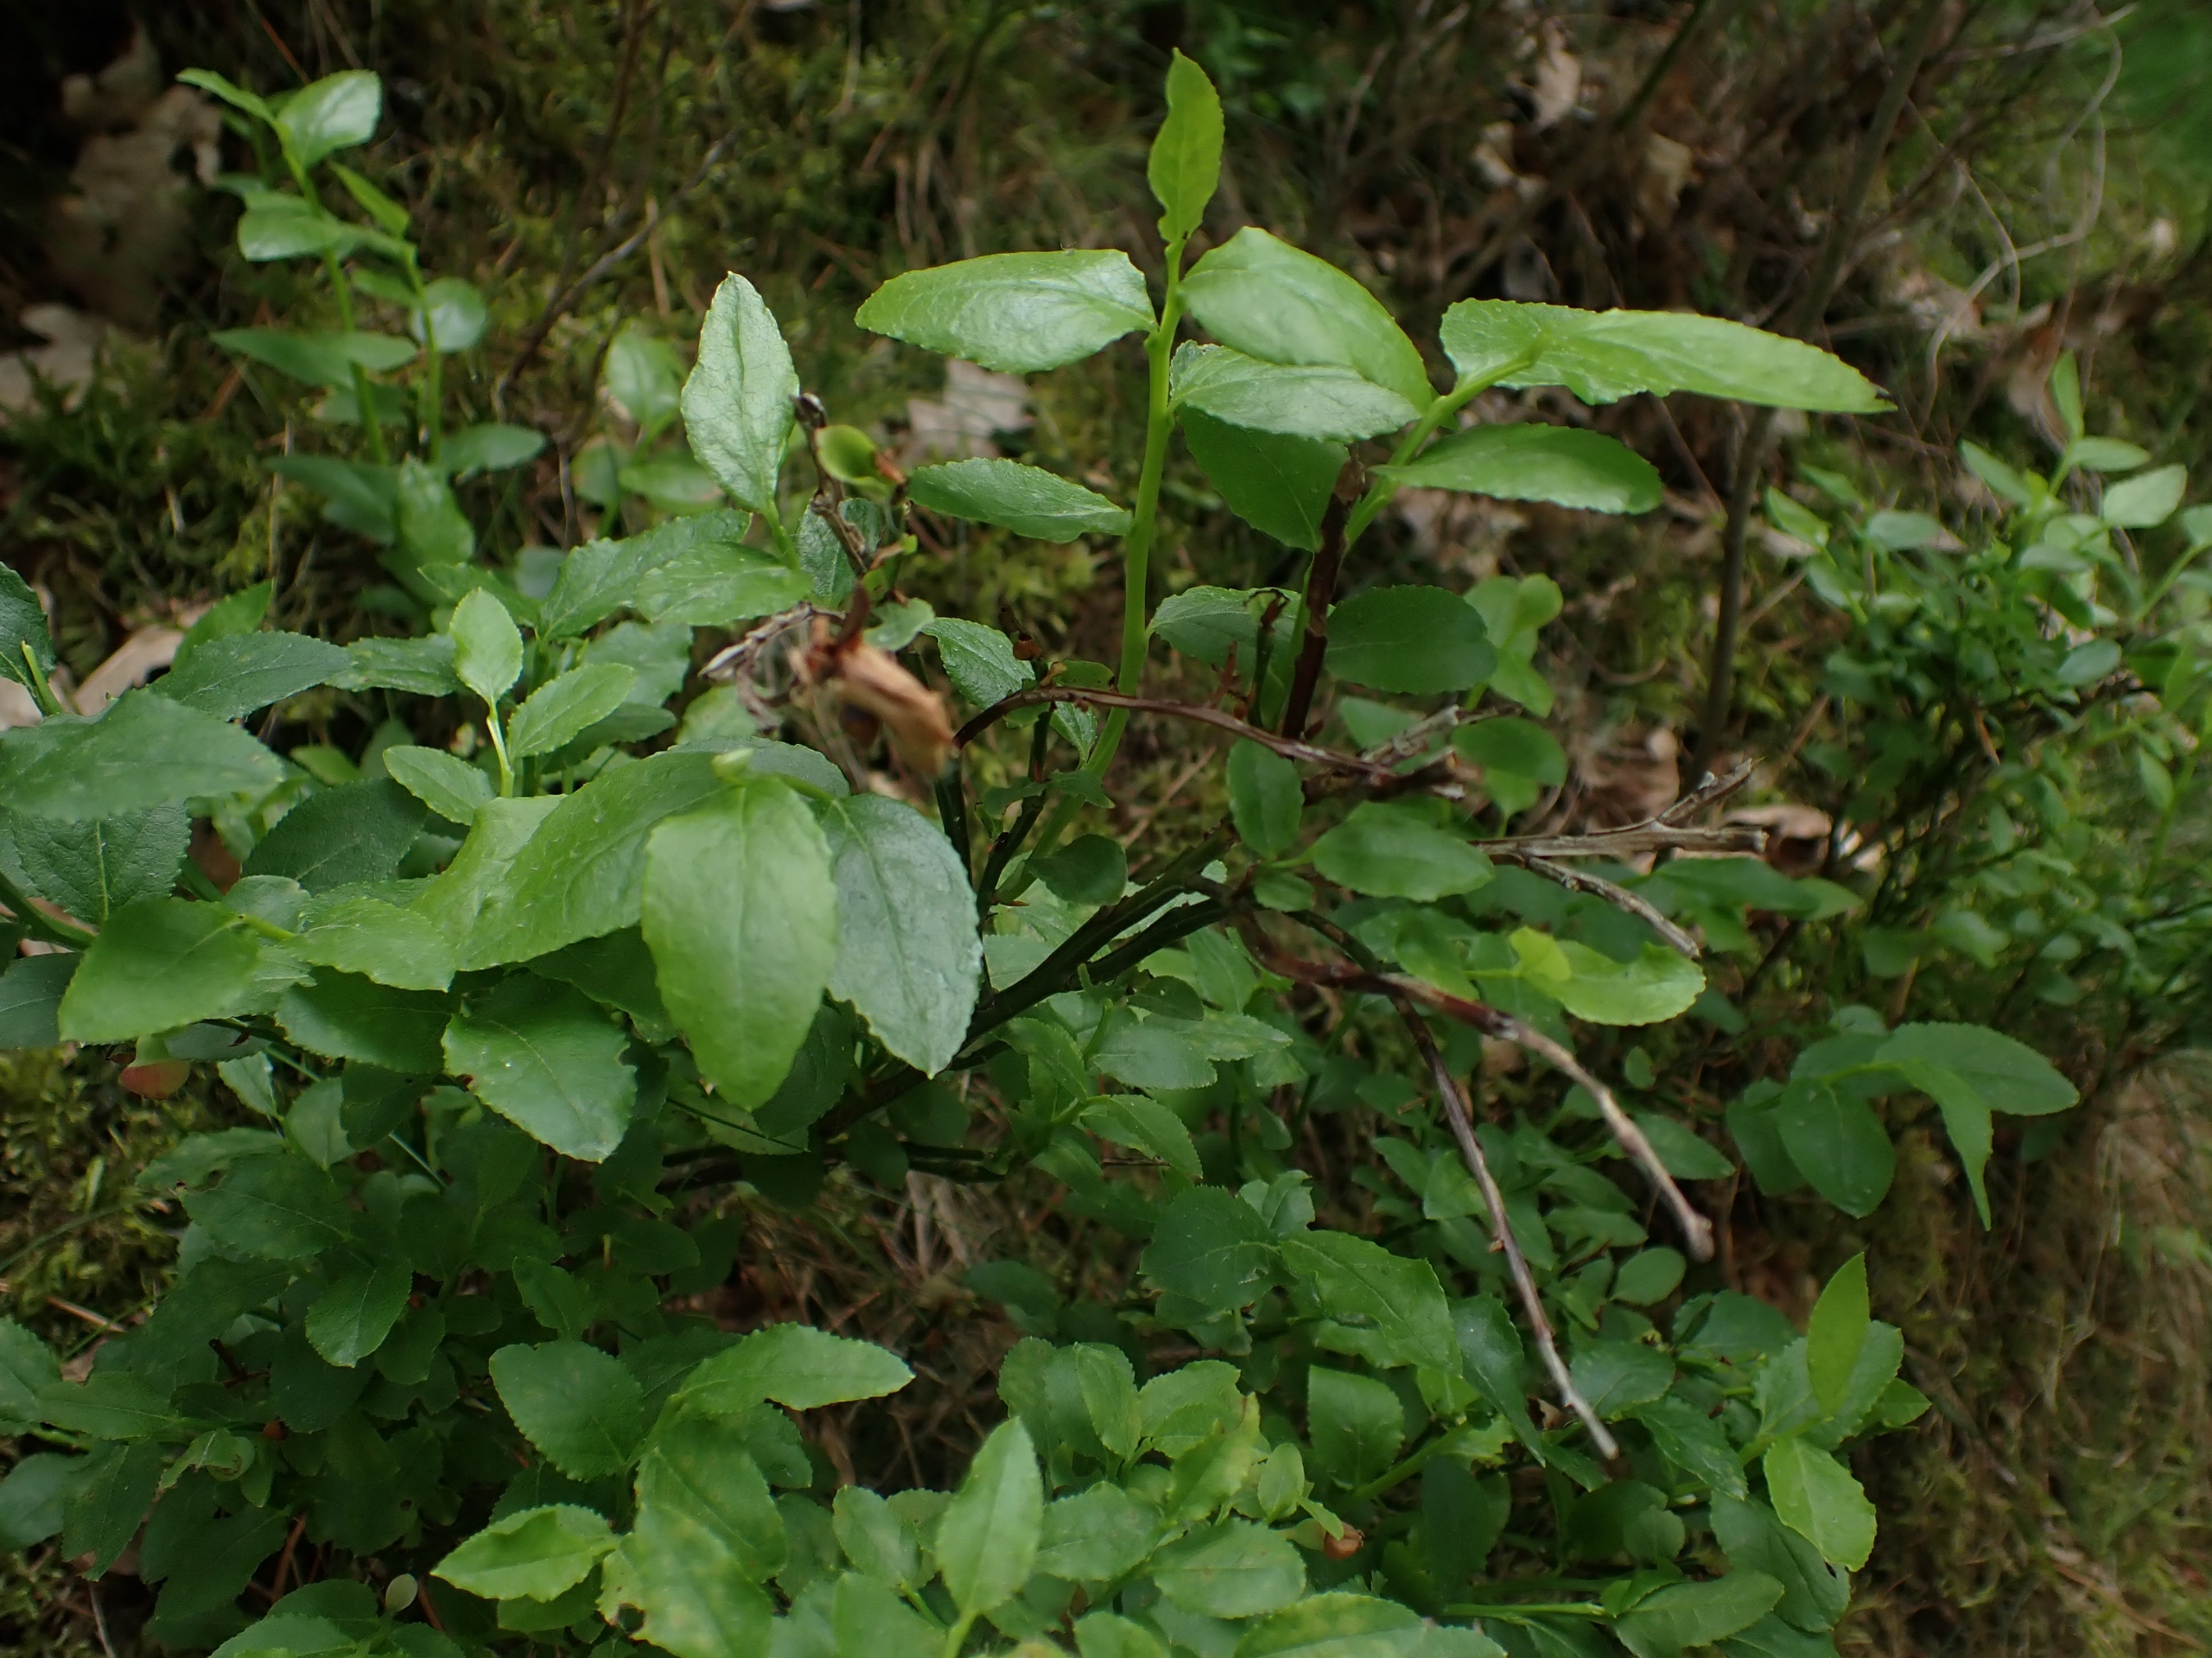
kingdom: Plantae
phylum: Tracheophyta
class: Magnoliopsida
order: Ericales
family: Ericaceae
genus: Vaccinium
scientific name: Vaccinium myrtillus
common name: Blåbær
